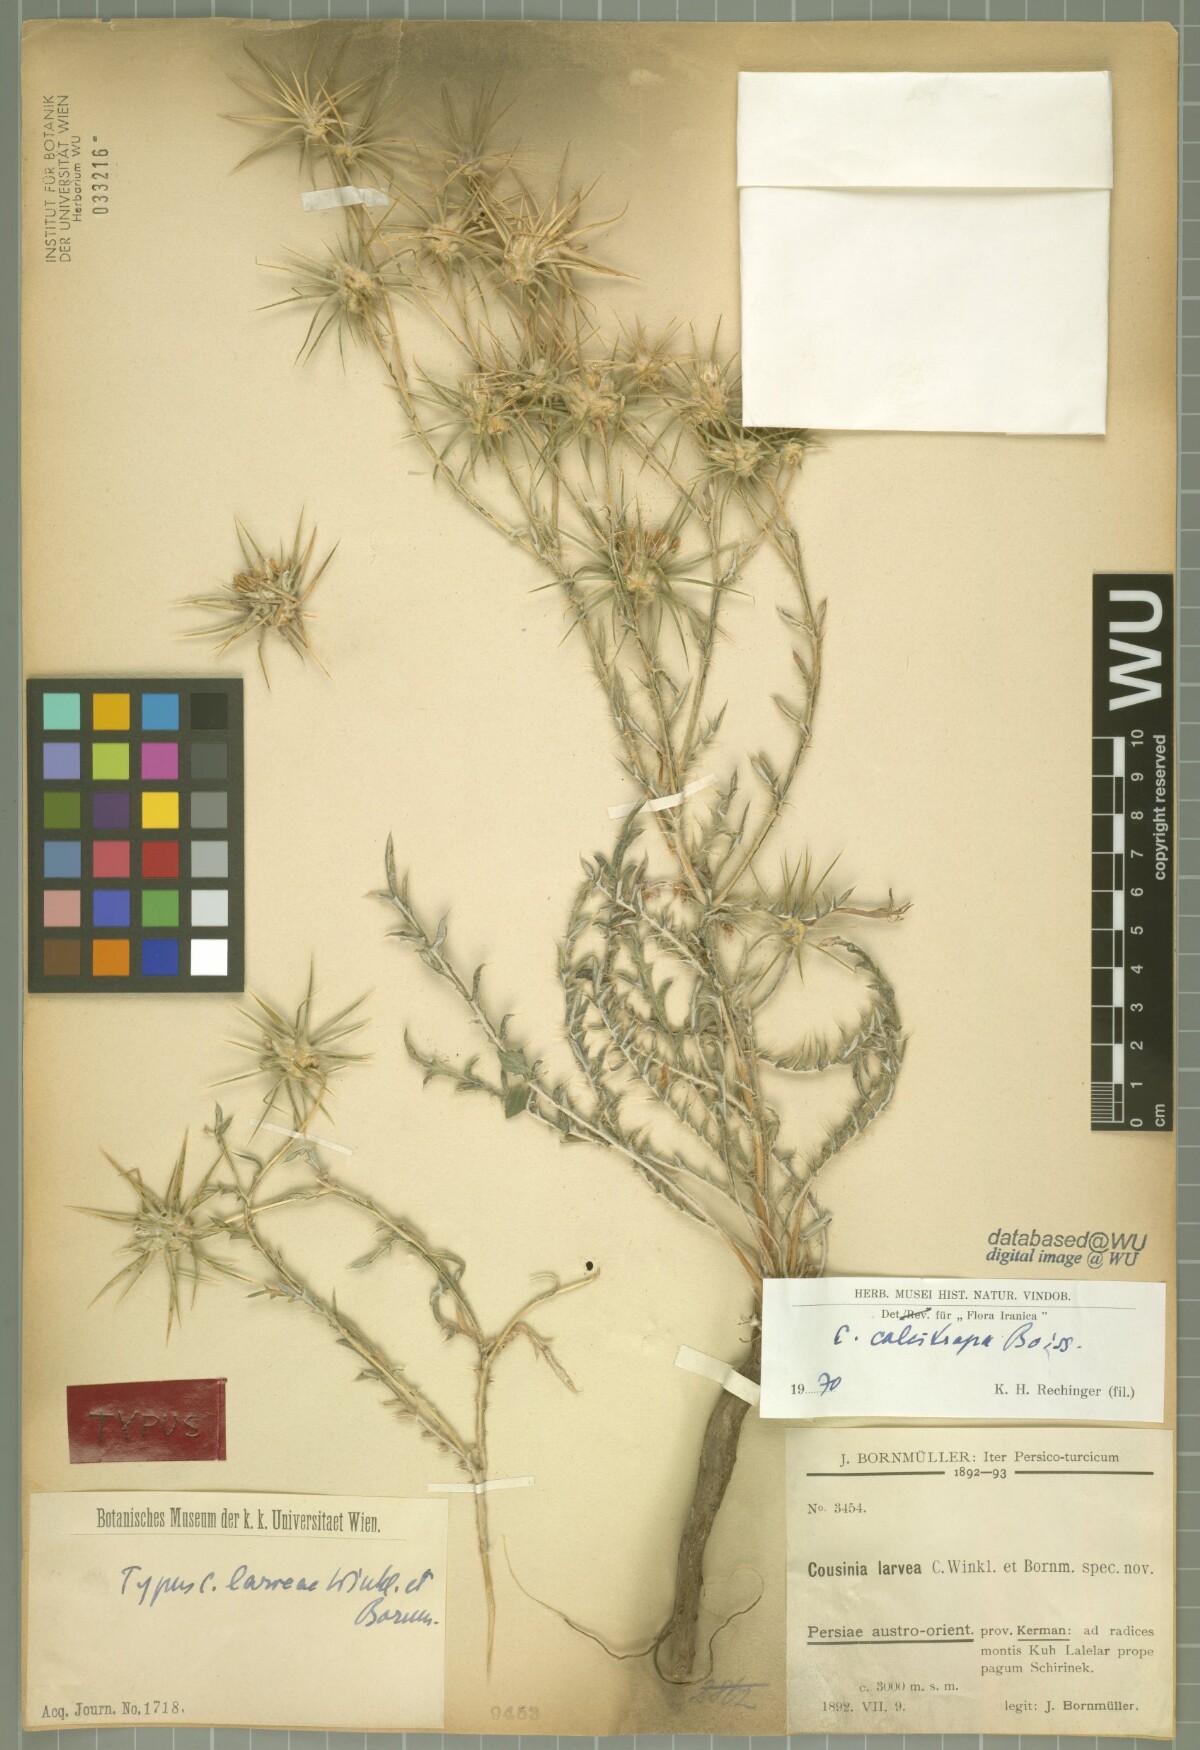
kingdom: Plantae
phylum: Tracheophyta
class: Magnoliopsida
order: Asterales
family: Asteraceae
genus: Cousinia
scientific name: Cousinia calcitrapa
